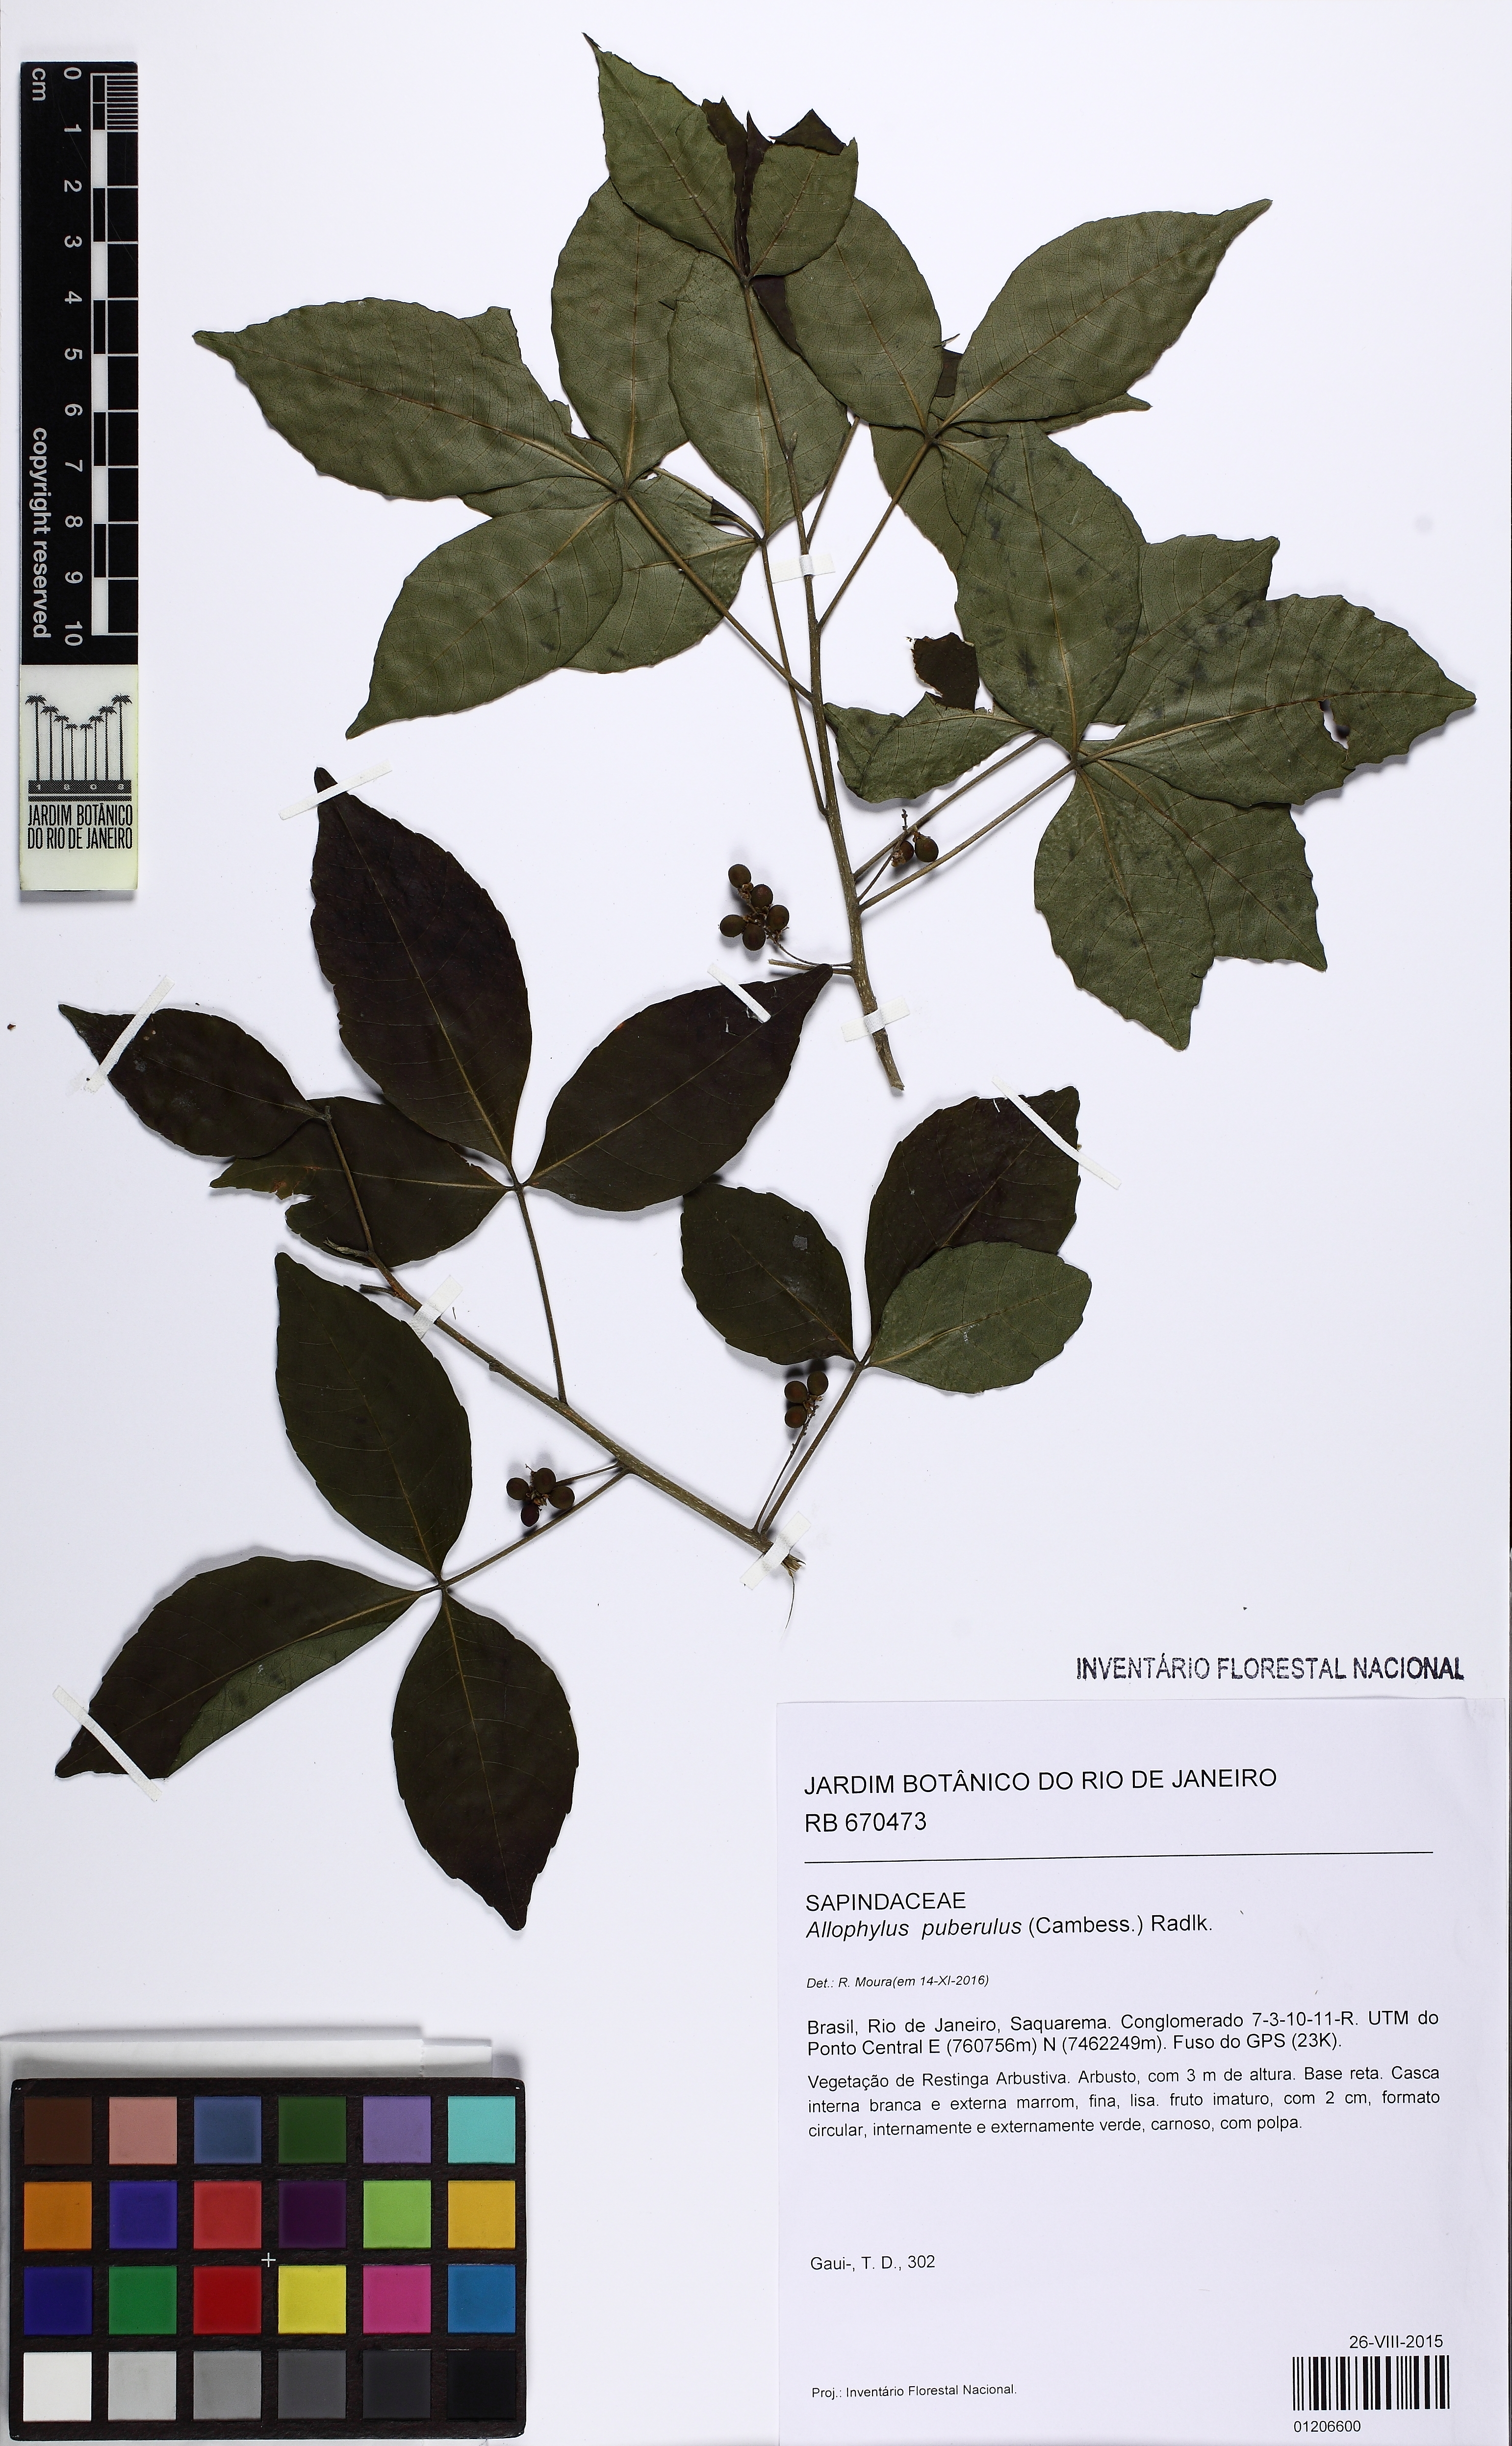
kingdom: Plantae
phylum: Tracheophyta
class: Magnoliopsida
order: Sapindales
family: Sapindaceae
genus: Allophylus
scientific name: Allophylus puberulus
